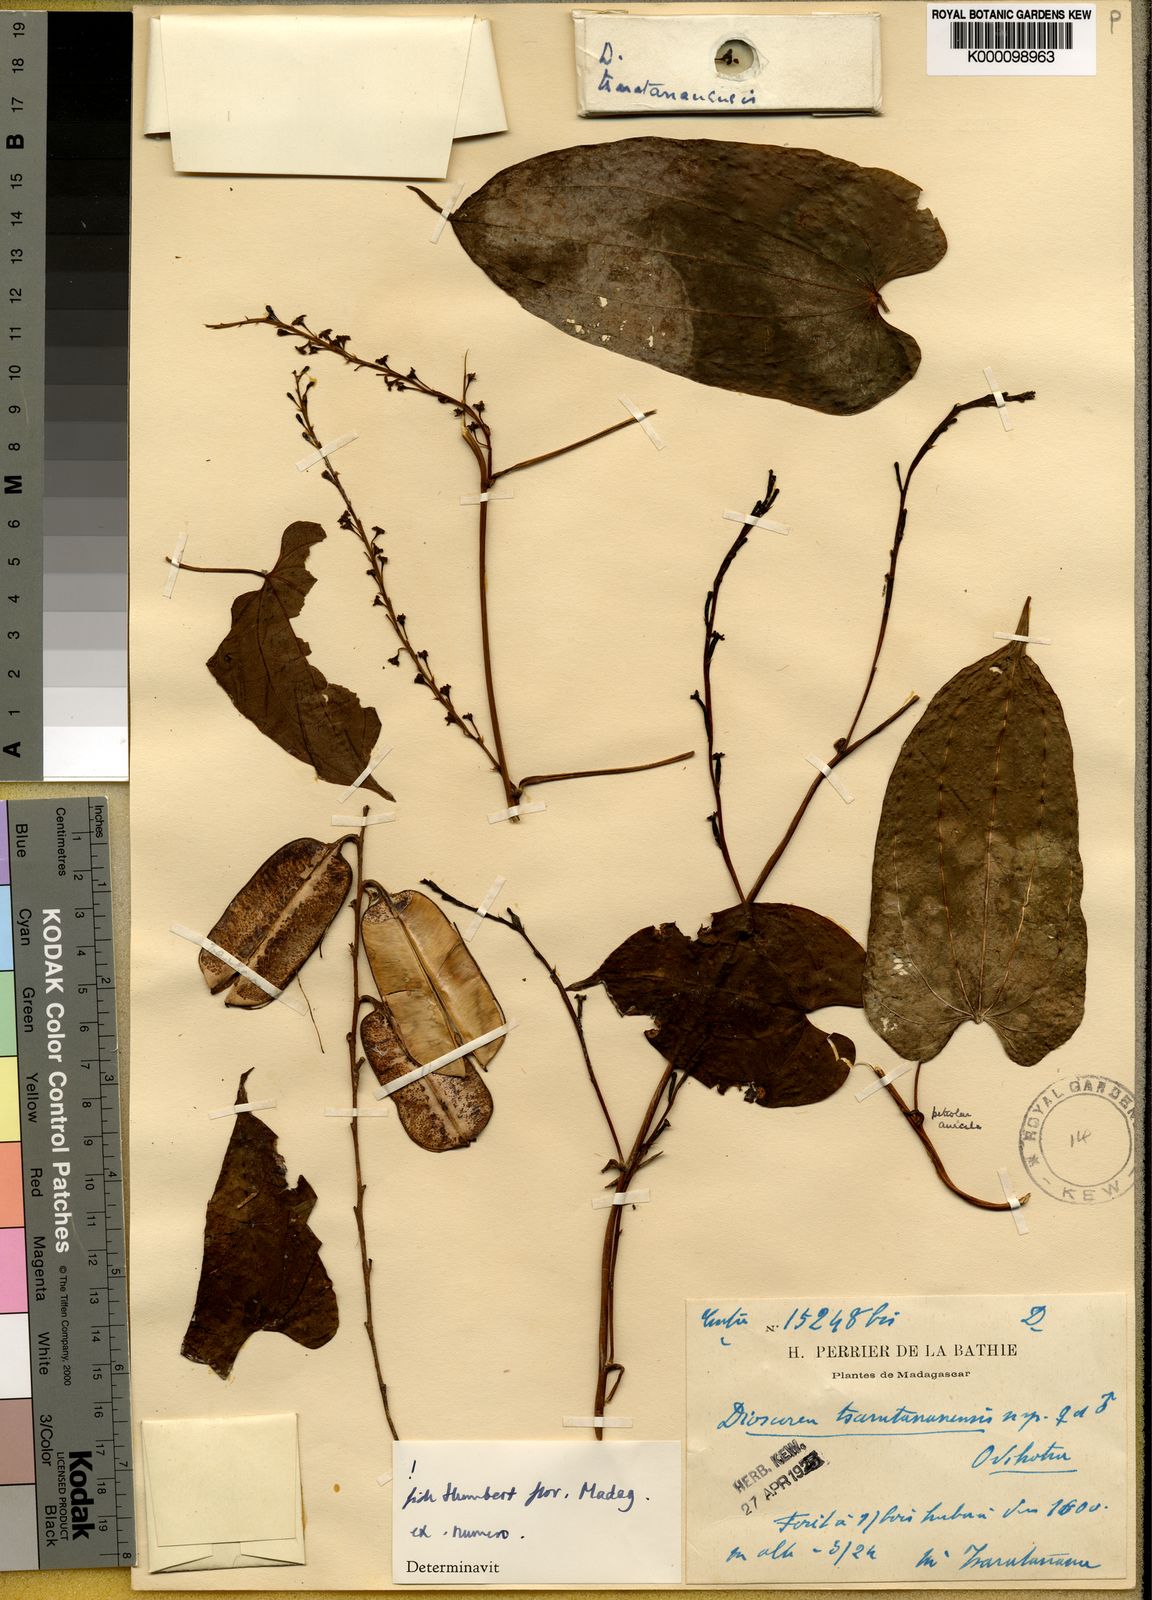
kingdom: Plantae
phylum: Tracheophyta
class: Liliopsida
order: Dioscoreales
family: Dioscoreaceae
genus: Dioscorea
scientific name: Dioscorea tsaratananensis
